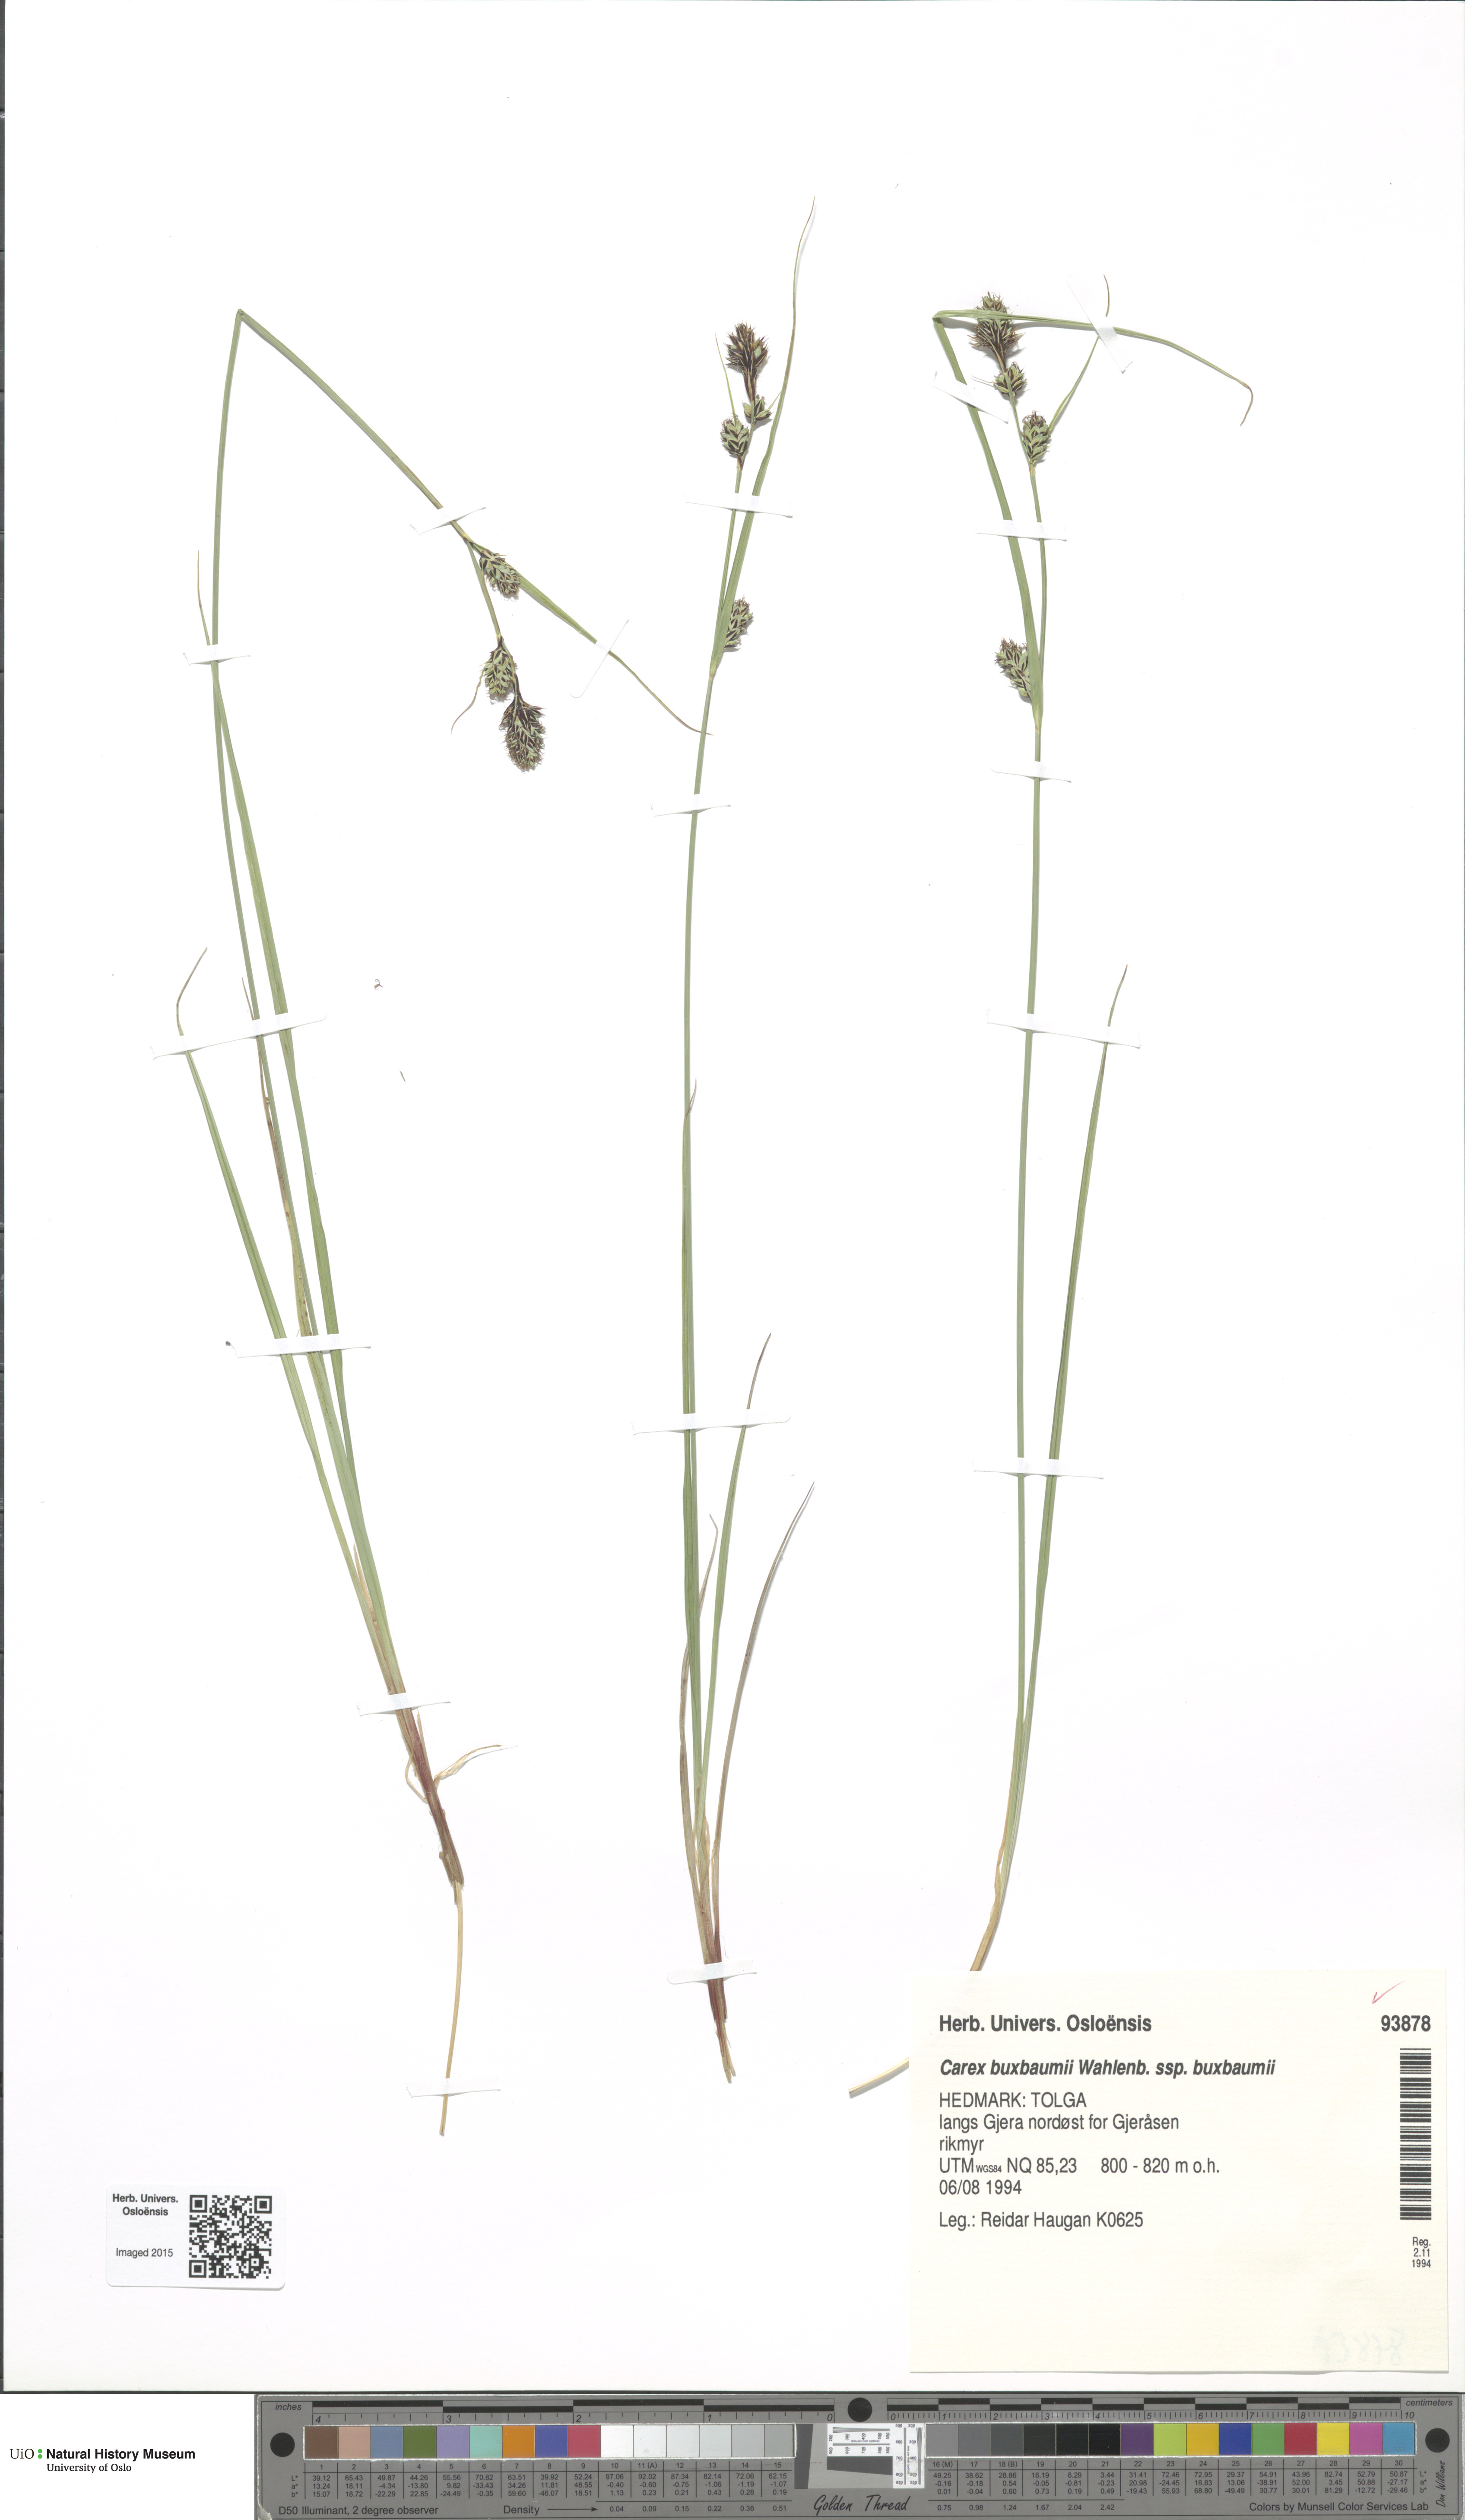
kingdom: Plantae
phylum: Tracheophyta
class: Liliopsida
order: Poales
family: Cyperaceae
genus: Carex
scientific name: Carex buxbaumii
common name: Club sedge
